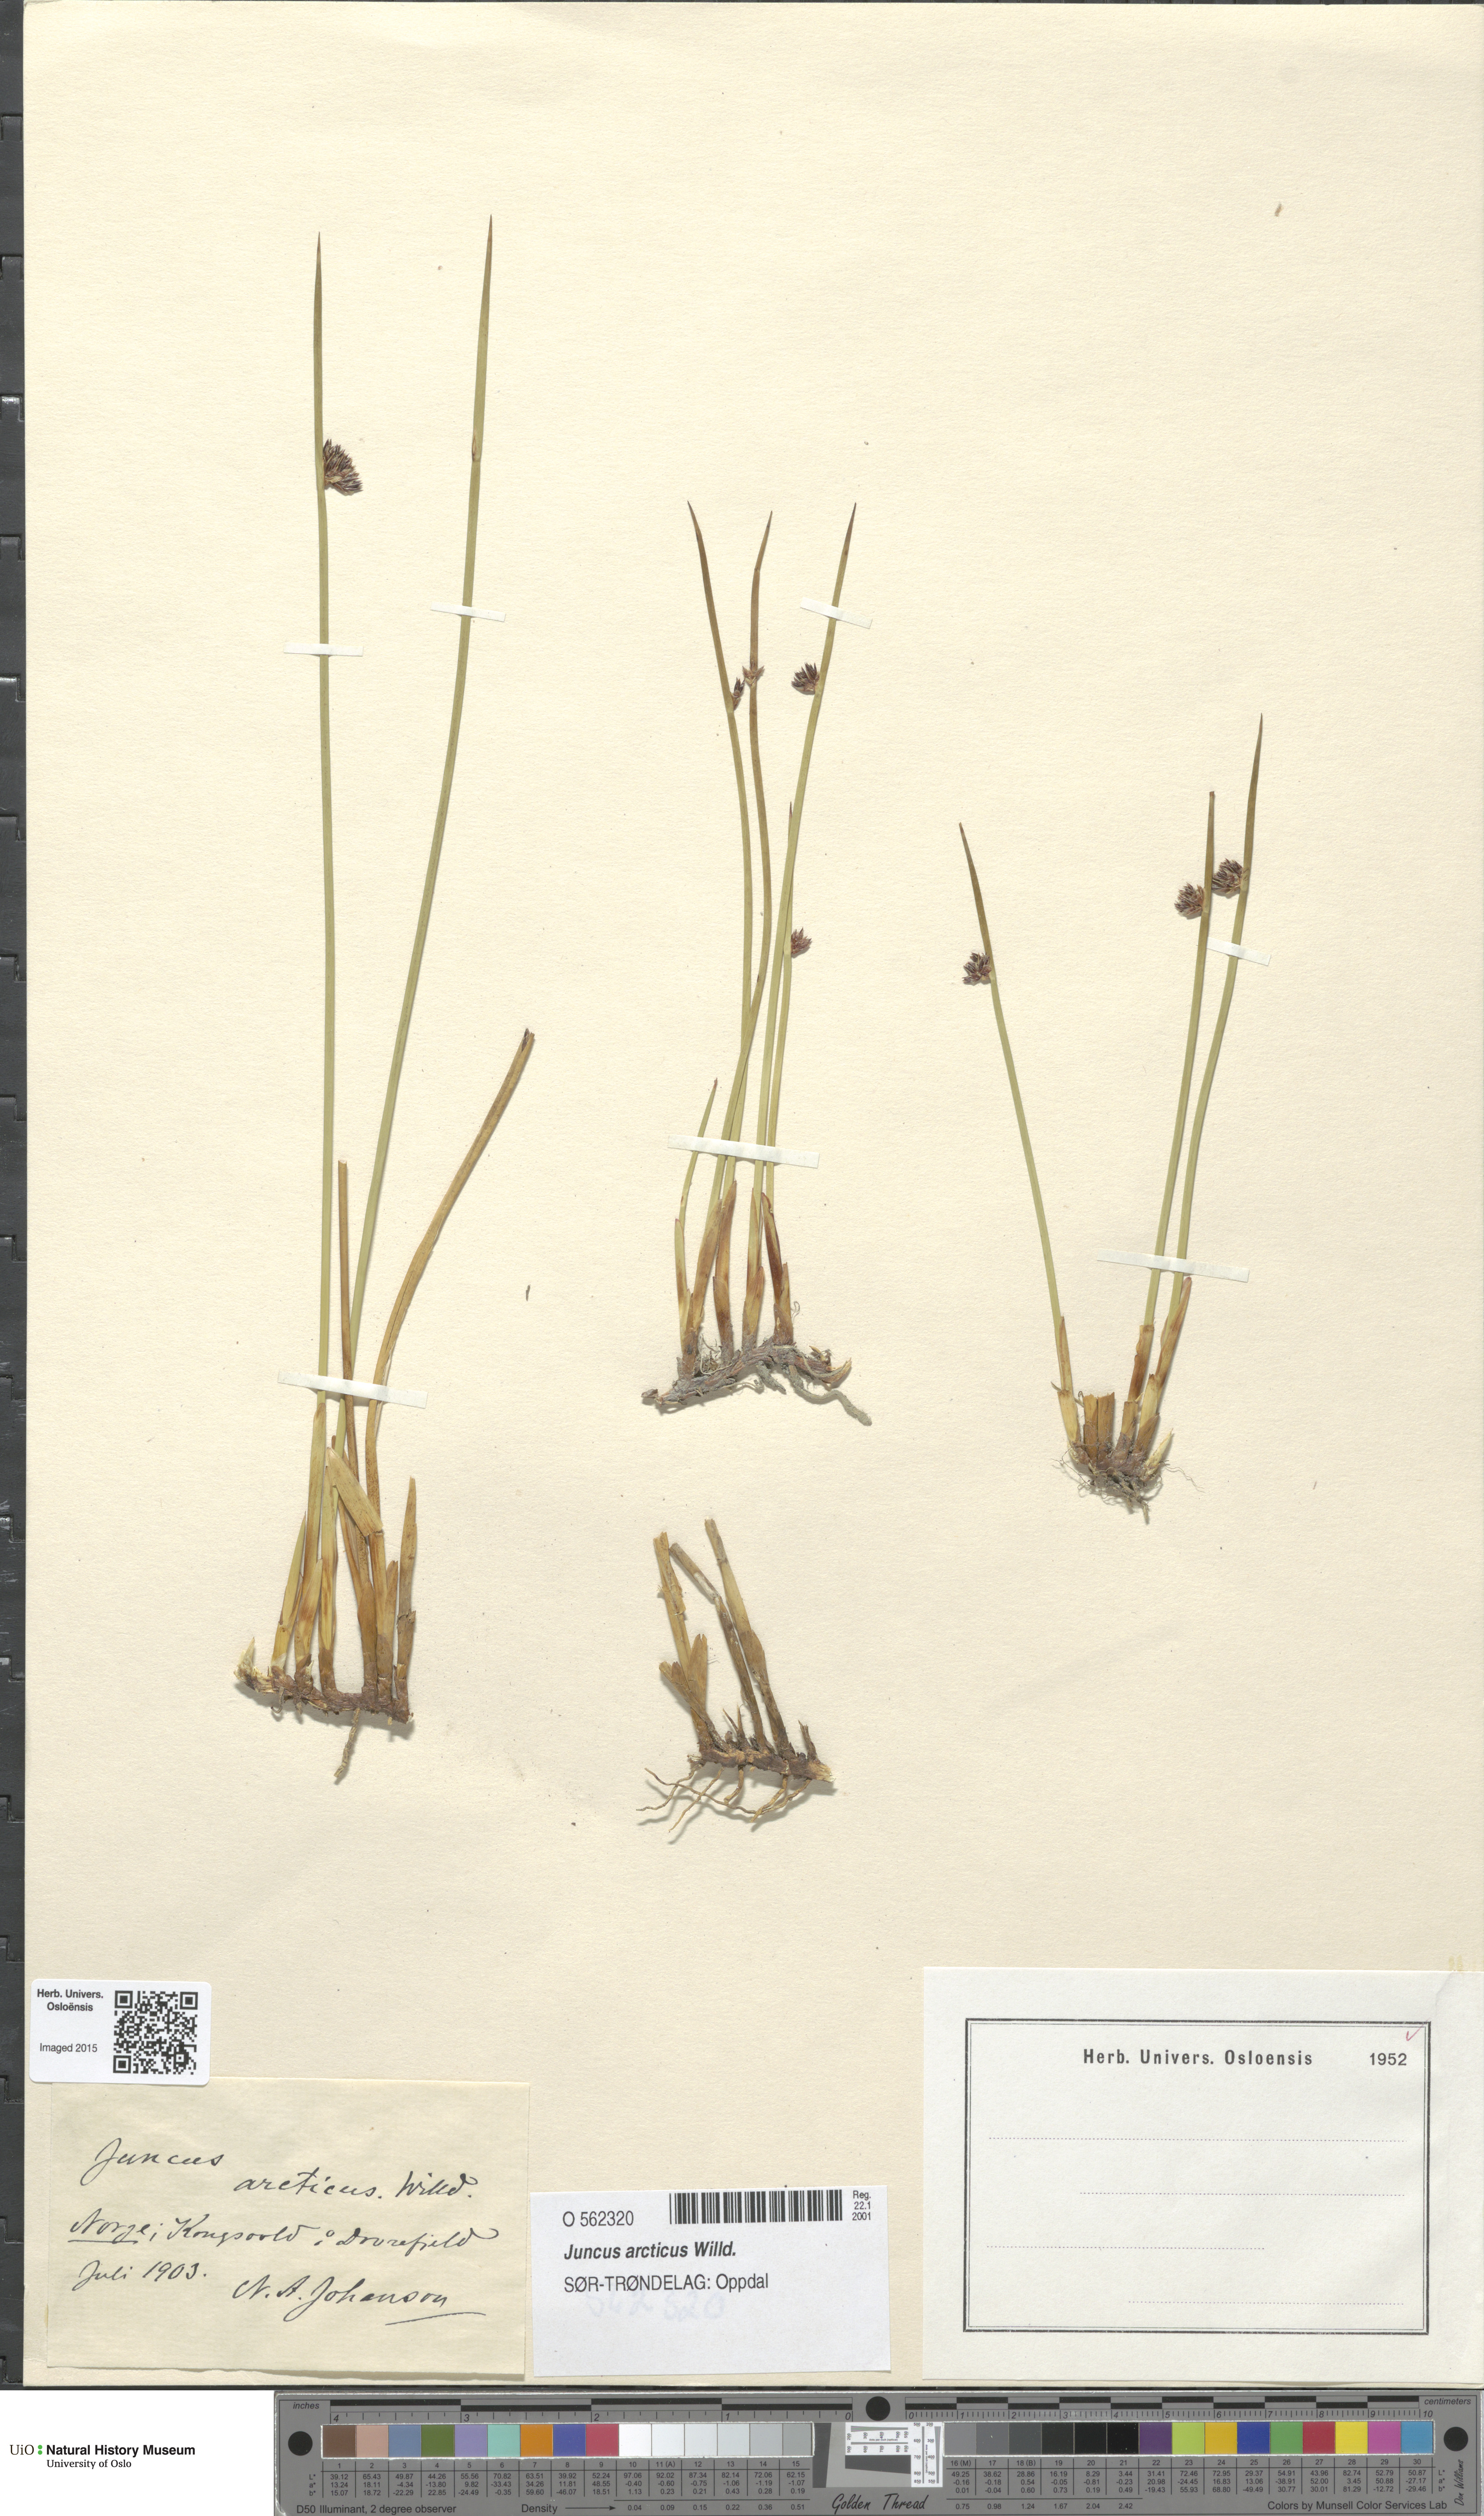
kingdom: Plantae
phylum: Tracheophyta
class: Liliopsida
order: Poales
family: Juncaceae
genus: Juncus
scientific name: Juncus arcticus
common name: Arctic rush
